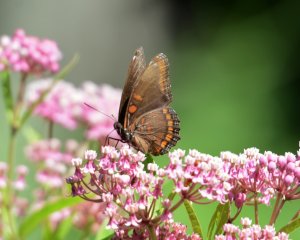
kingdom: Animalia
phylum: Arthropoda
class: Insecta
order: Lepidoptera
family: Nymphalidae
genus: Limenitis
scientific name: Limenitis astyanax
